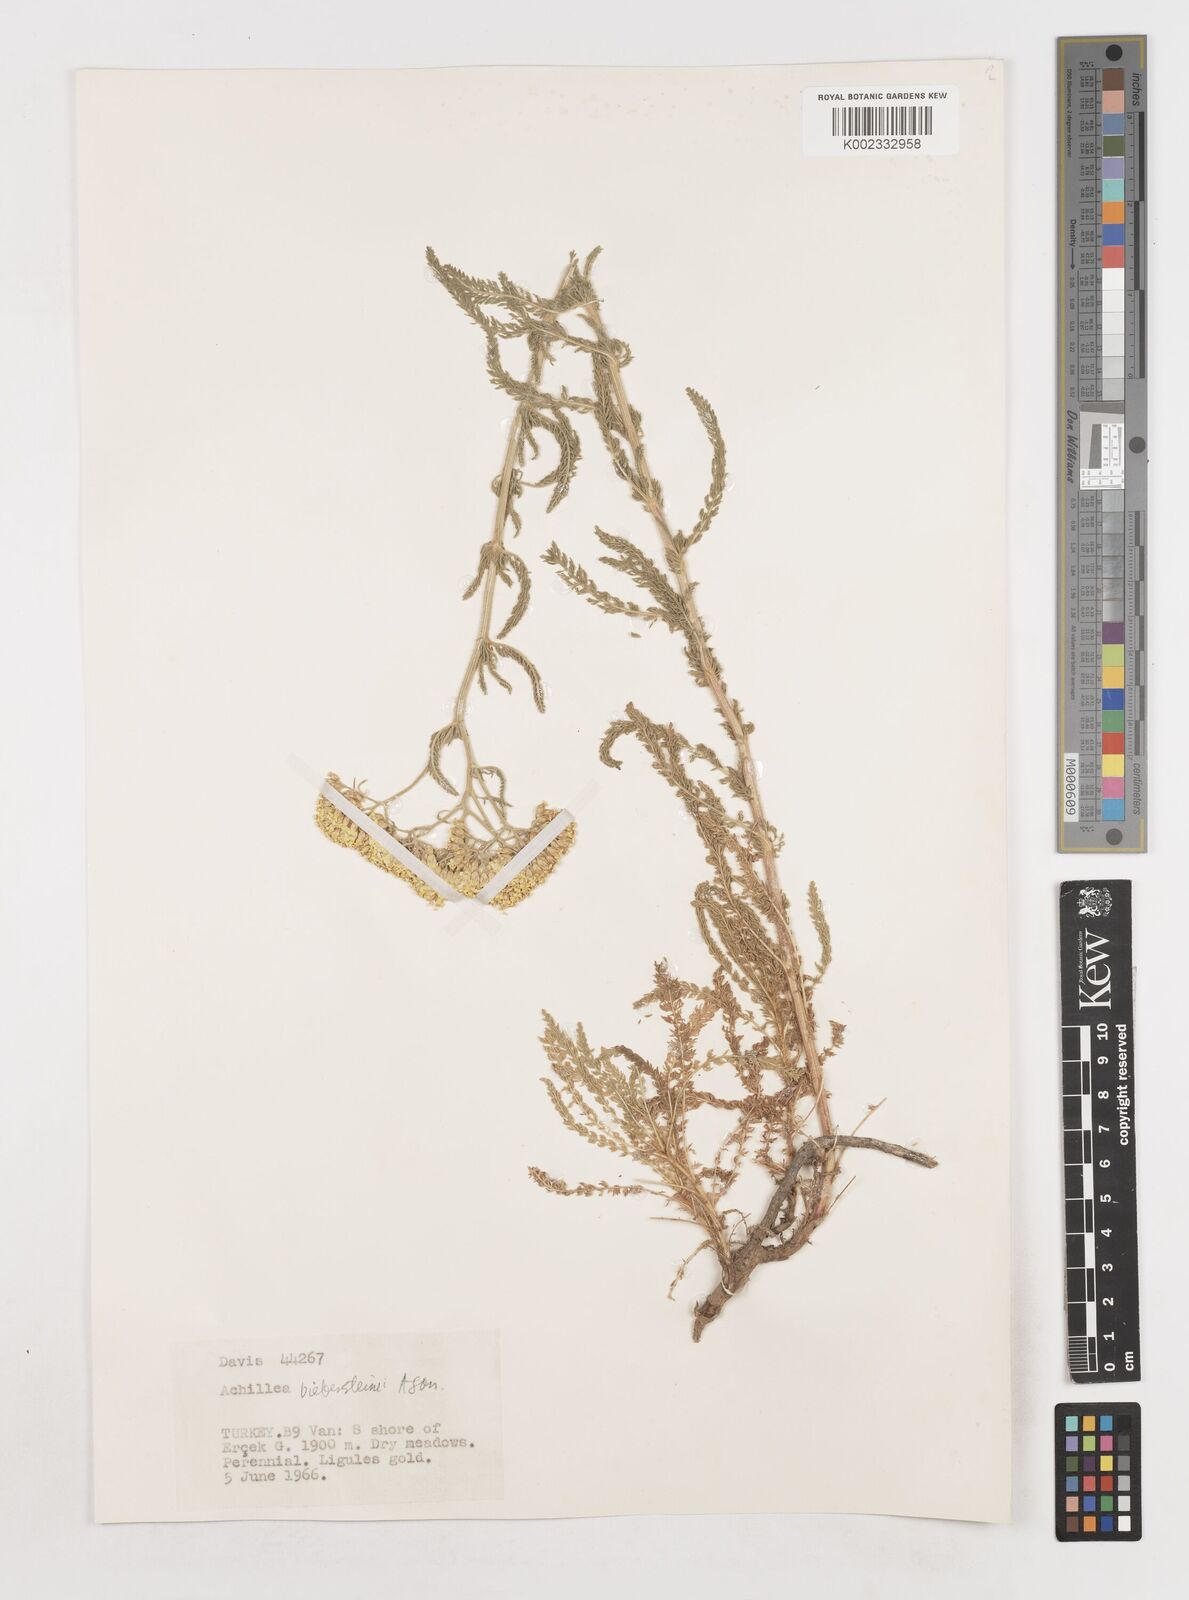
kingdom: Plantae
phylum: Tracheophyta
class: Magnoliopsida
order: Asterales
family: Asteraceae
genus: Achillea
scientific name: Achillea arabica
